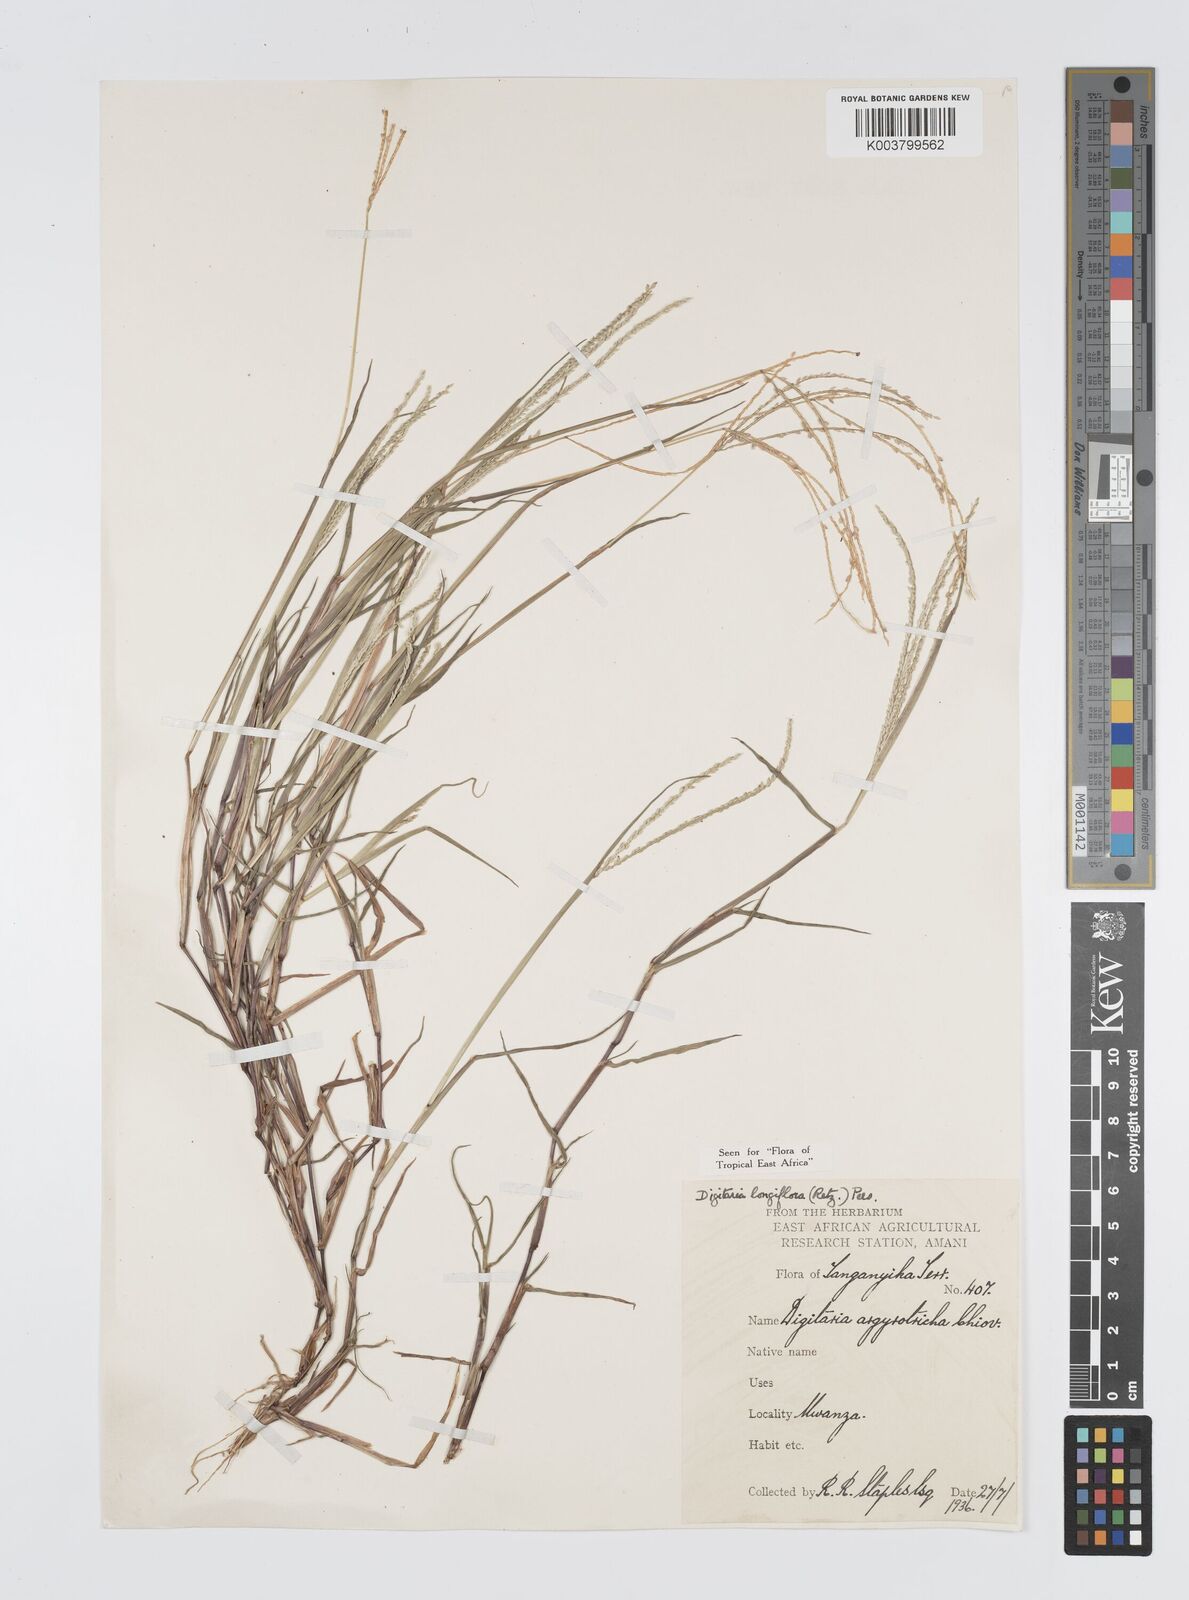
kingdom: Plantae
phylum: Tracheophyta
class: Liliopsida
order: Poales
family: Poaceae
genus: Digitaria
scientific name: Digitaria longiflora
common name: Wire crabgrass
